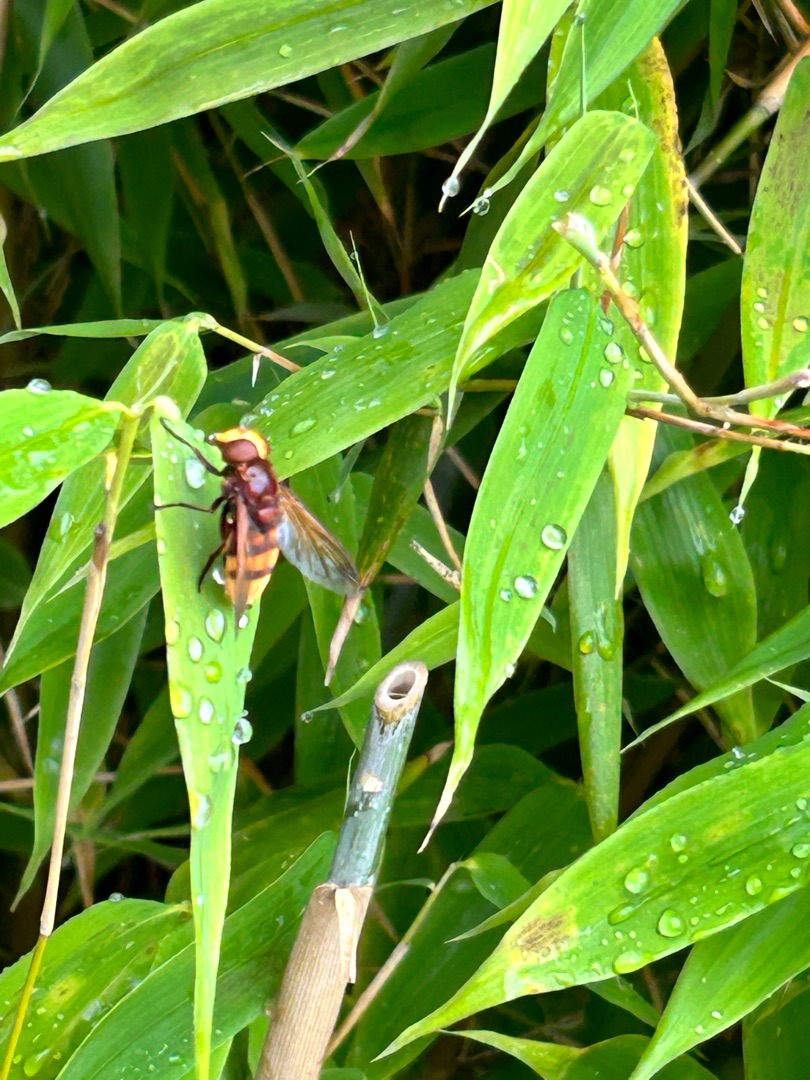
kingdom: Animalia
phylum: Arthropoda
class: Insecta
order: Diptera
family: Syrphidae
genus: Volucella
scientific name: Volucella zonaria
